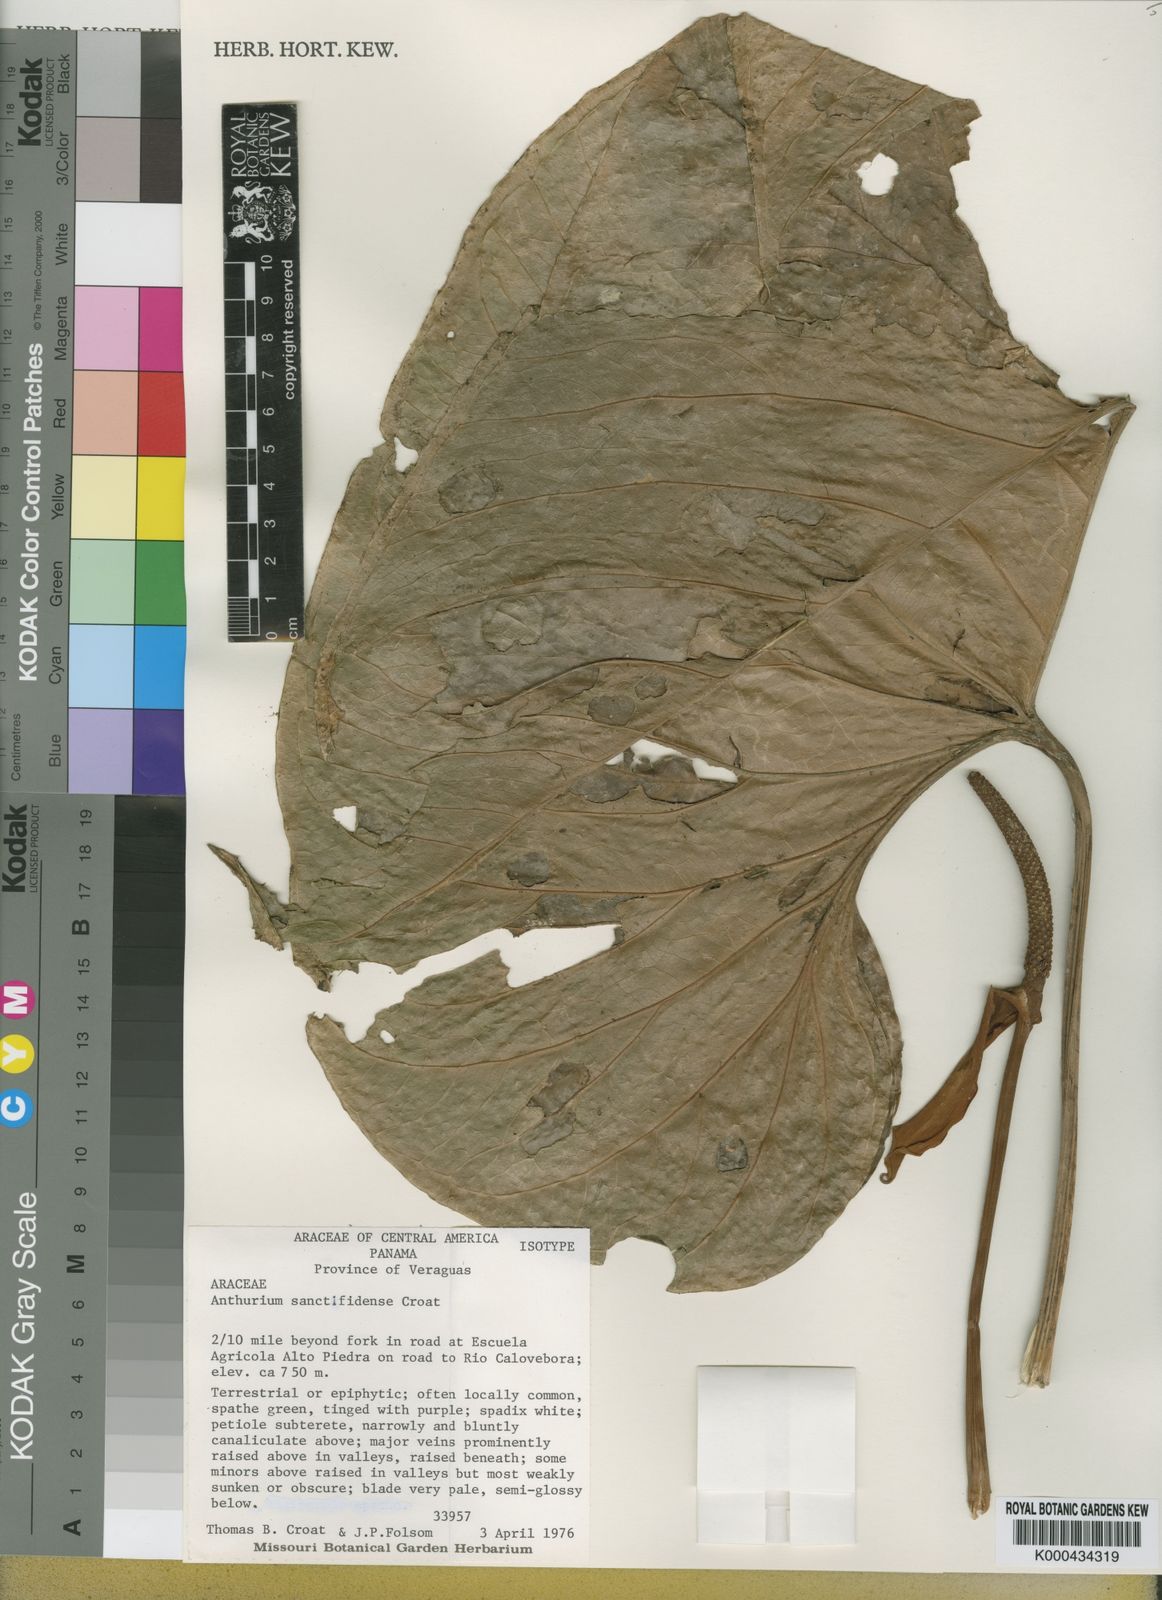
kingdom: Plantae
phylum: Tracheophyta
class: Liliopsida
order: Alismatales
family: Araceae
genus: Anthurium
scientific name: Anthurium sanctifidense
